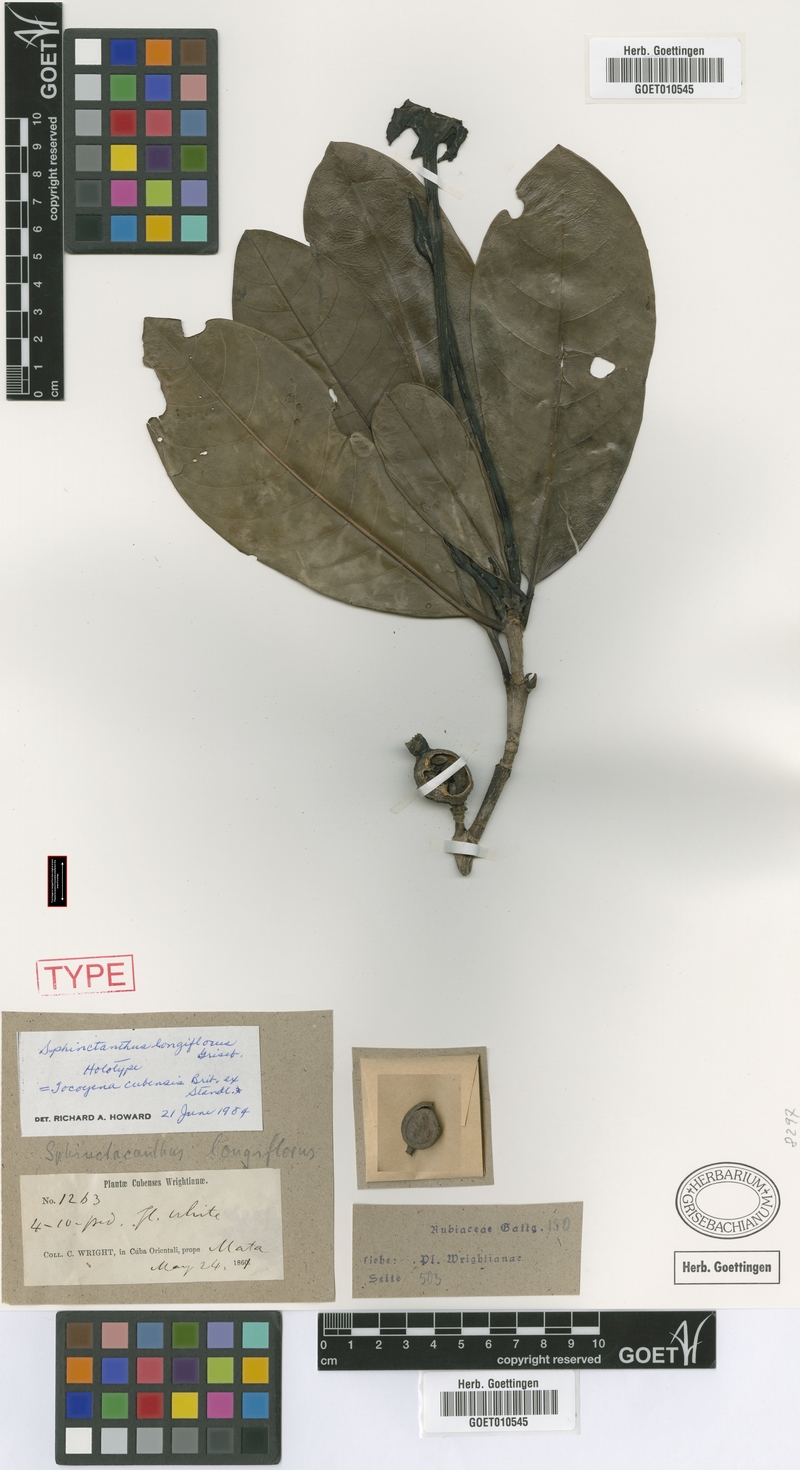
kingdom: Plantae
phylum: Tracheophyta
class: Magnoliopsida
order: Gentianales
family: Rubiaceae
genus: Tocoyena
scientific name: Tocoyena cubensis
